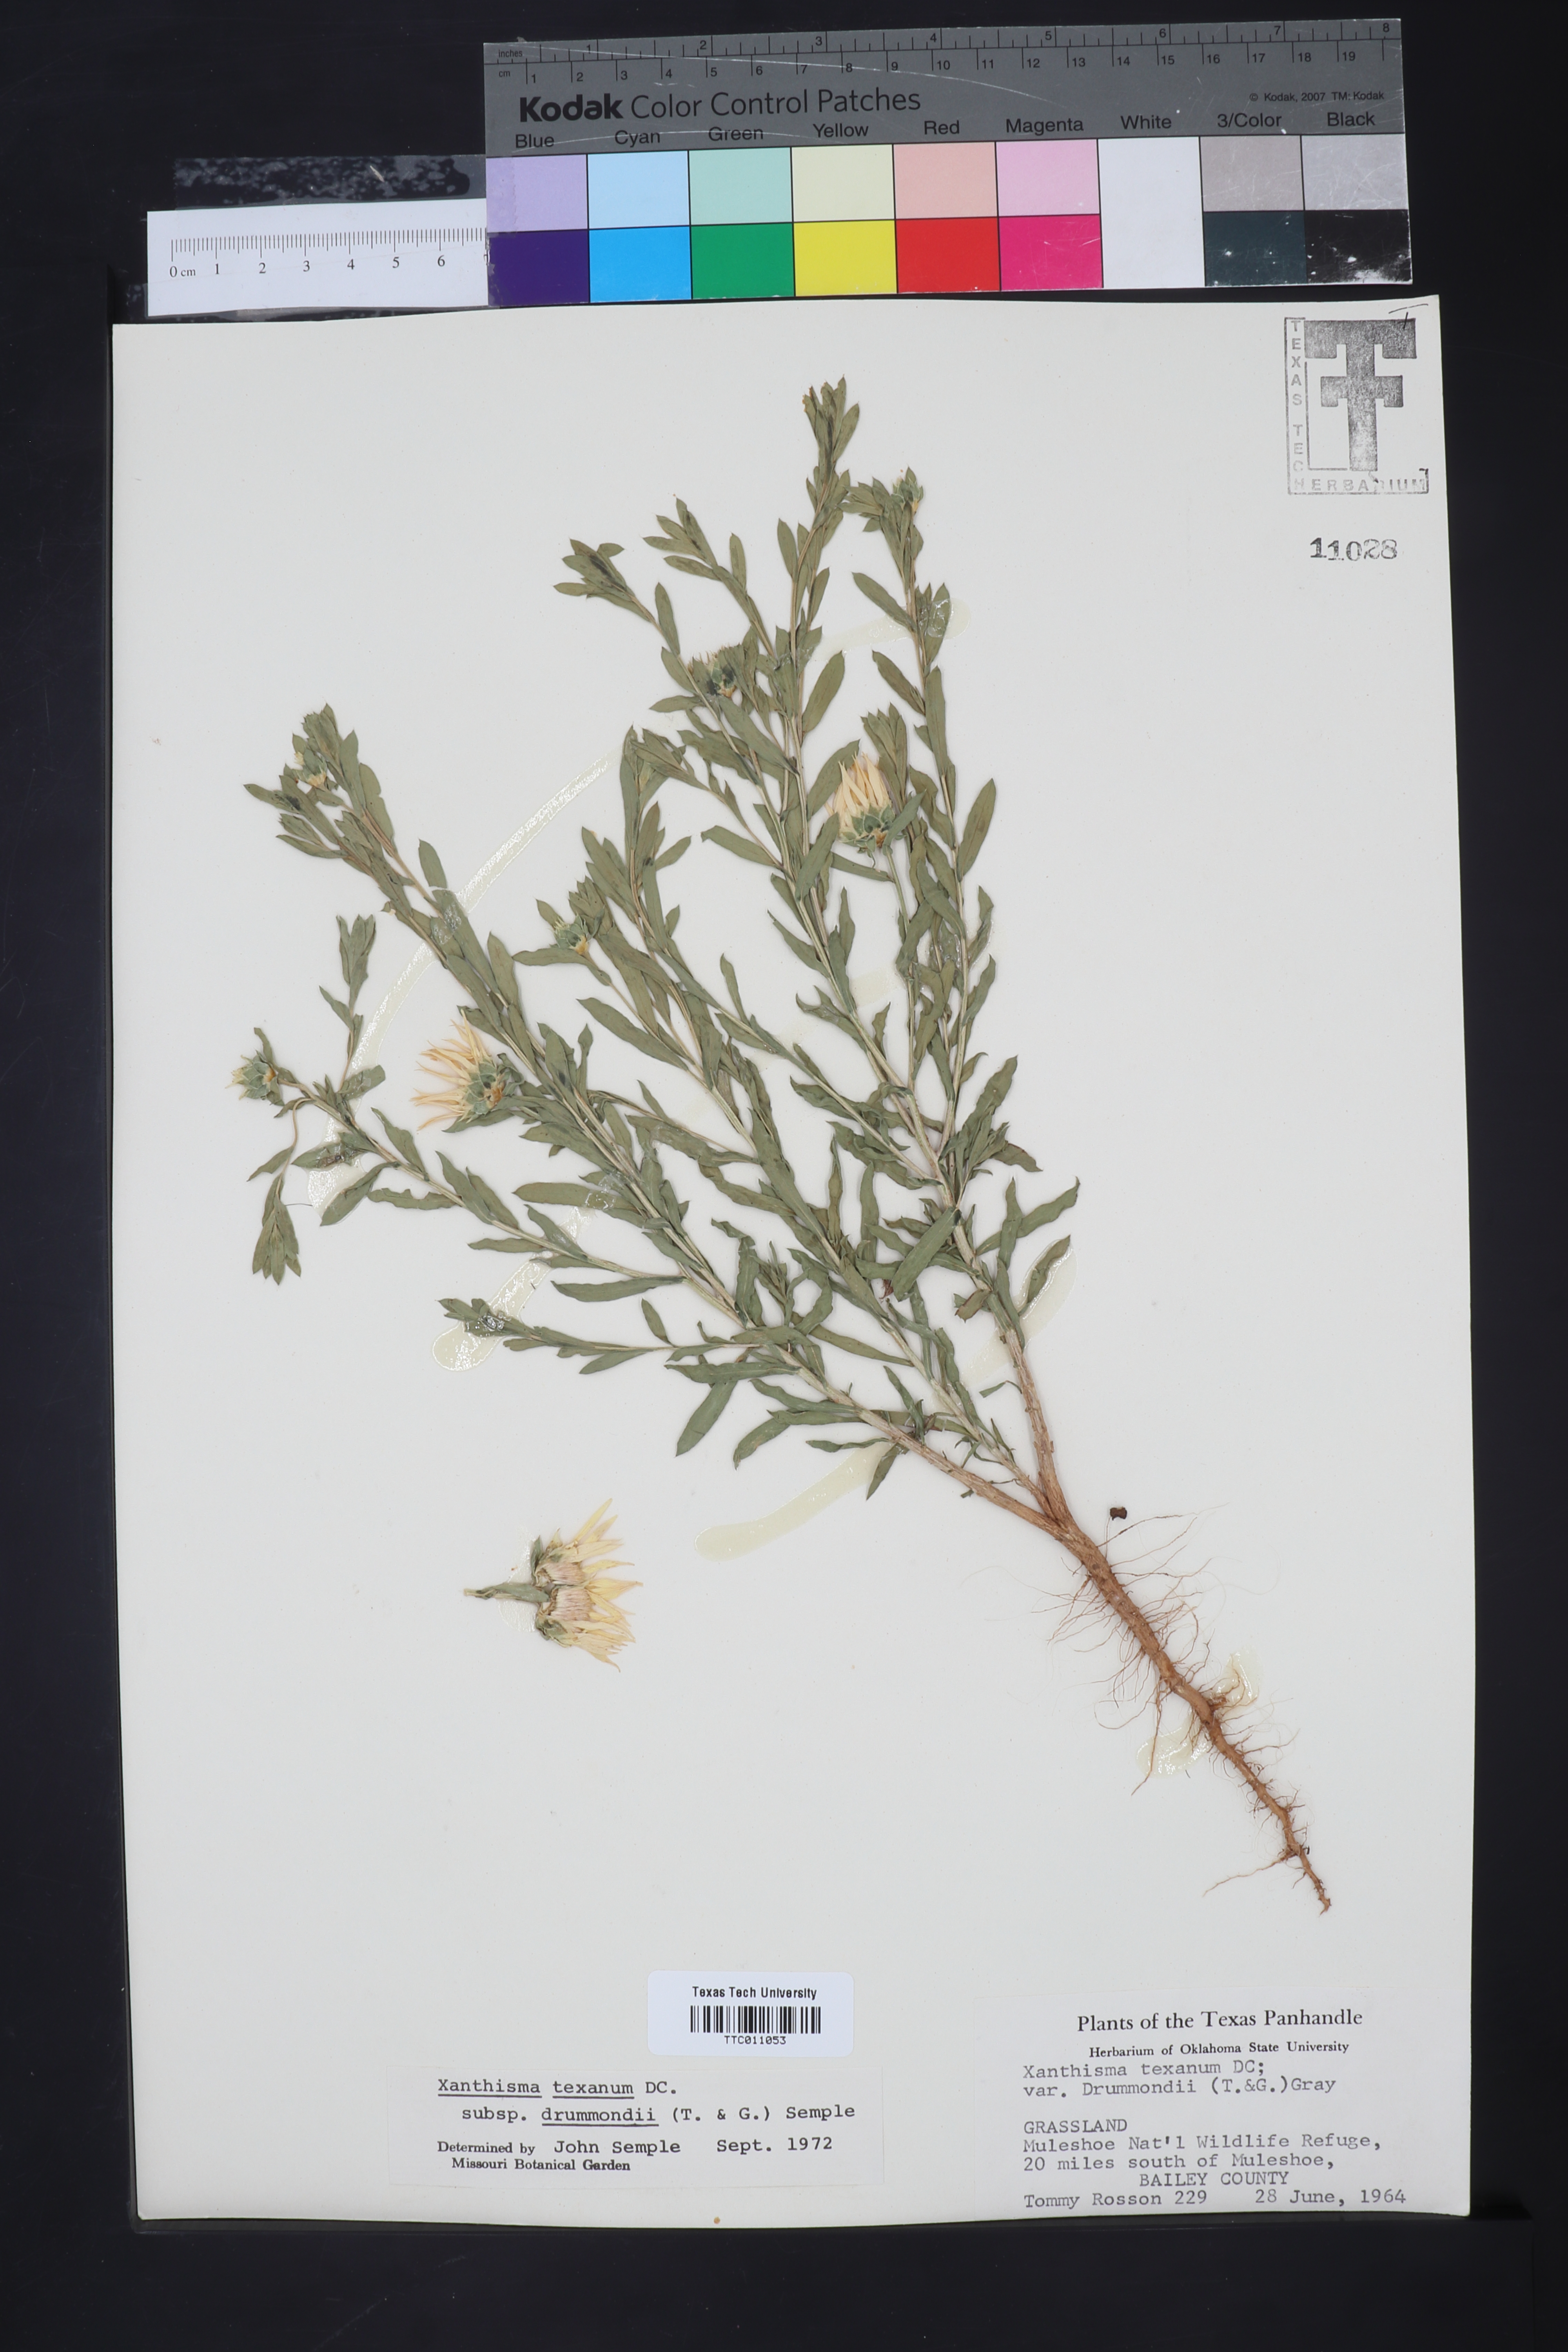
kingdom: Plantae
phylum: Tracheophyta
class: Magnoliopsida
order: Asterales
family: Asteraceae
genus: Xanthisma
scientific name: Xanthisma texanum
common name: Texas sleepy daisy
